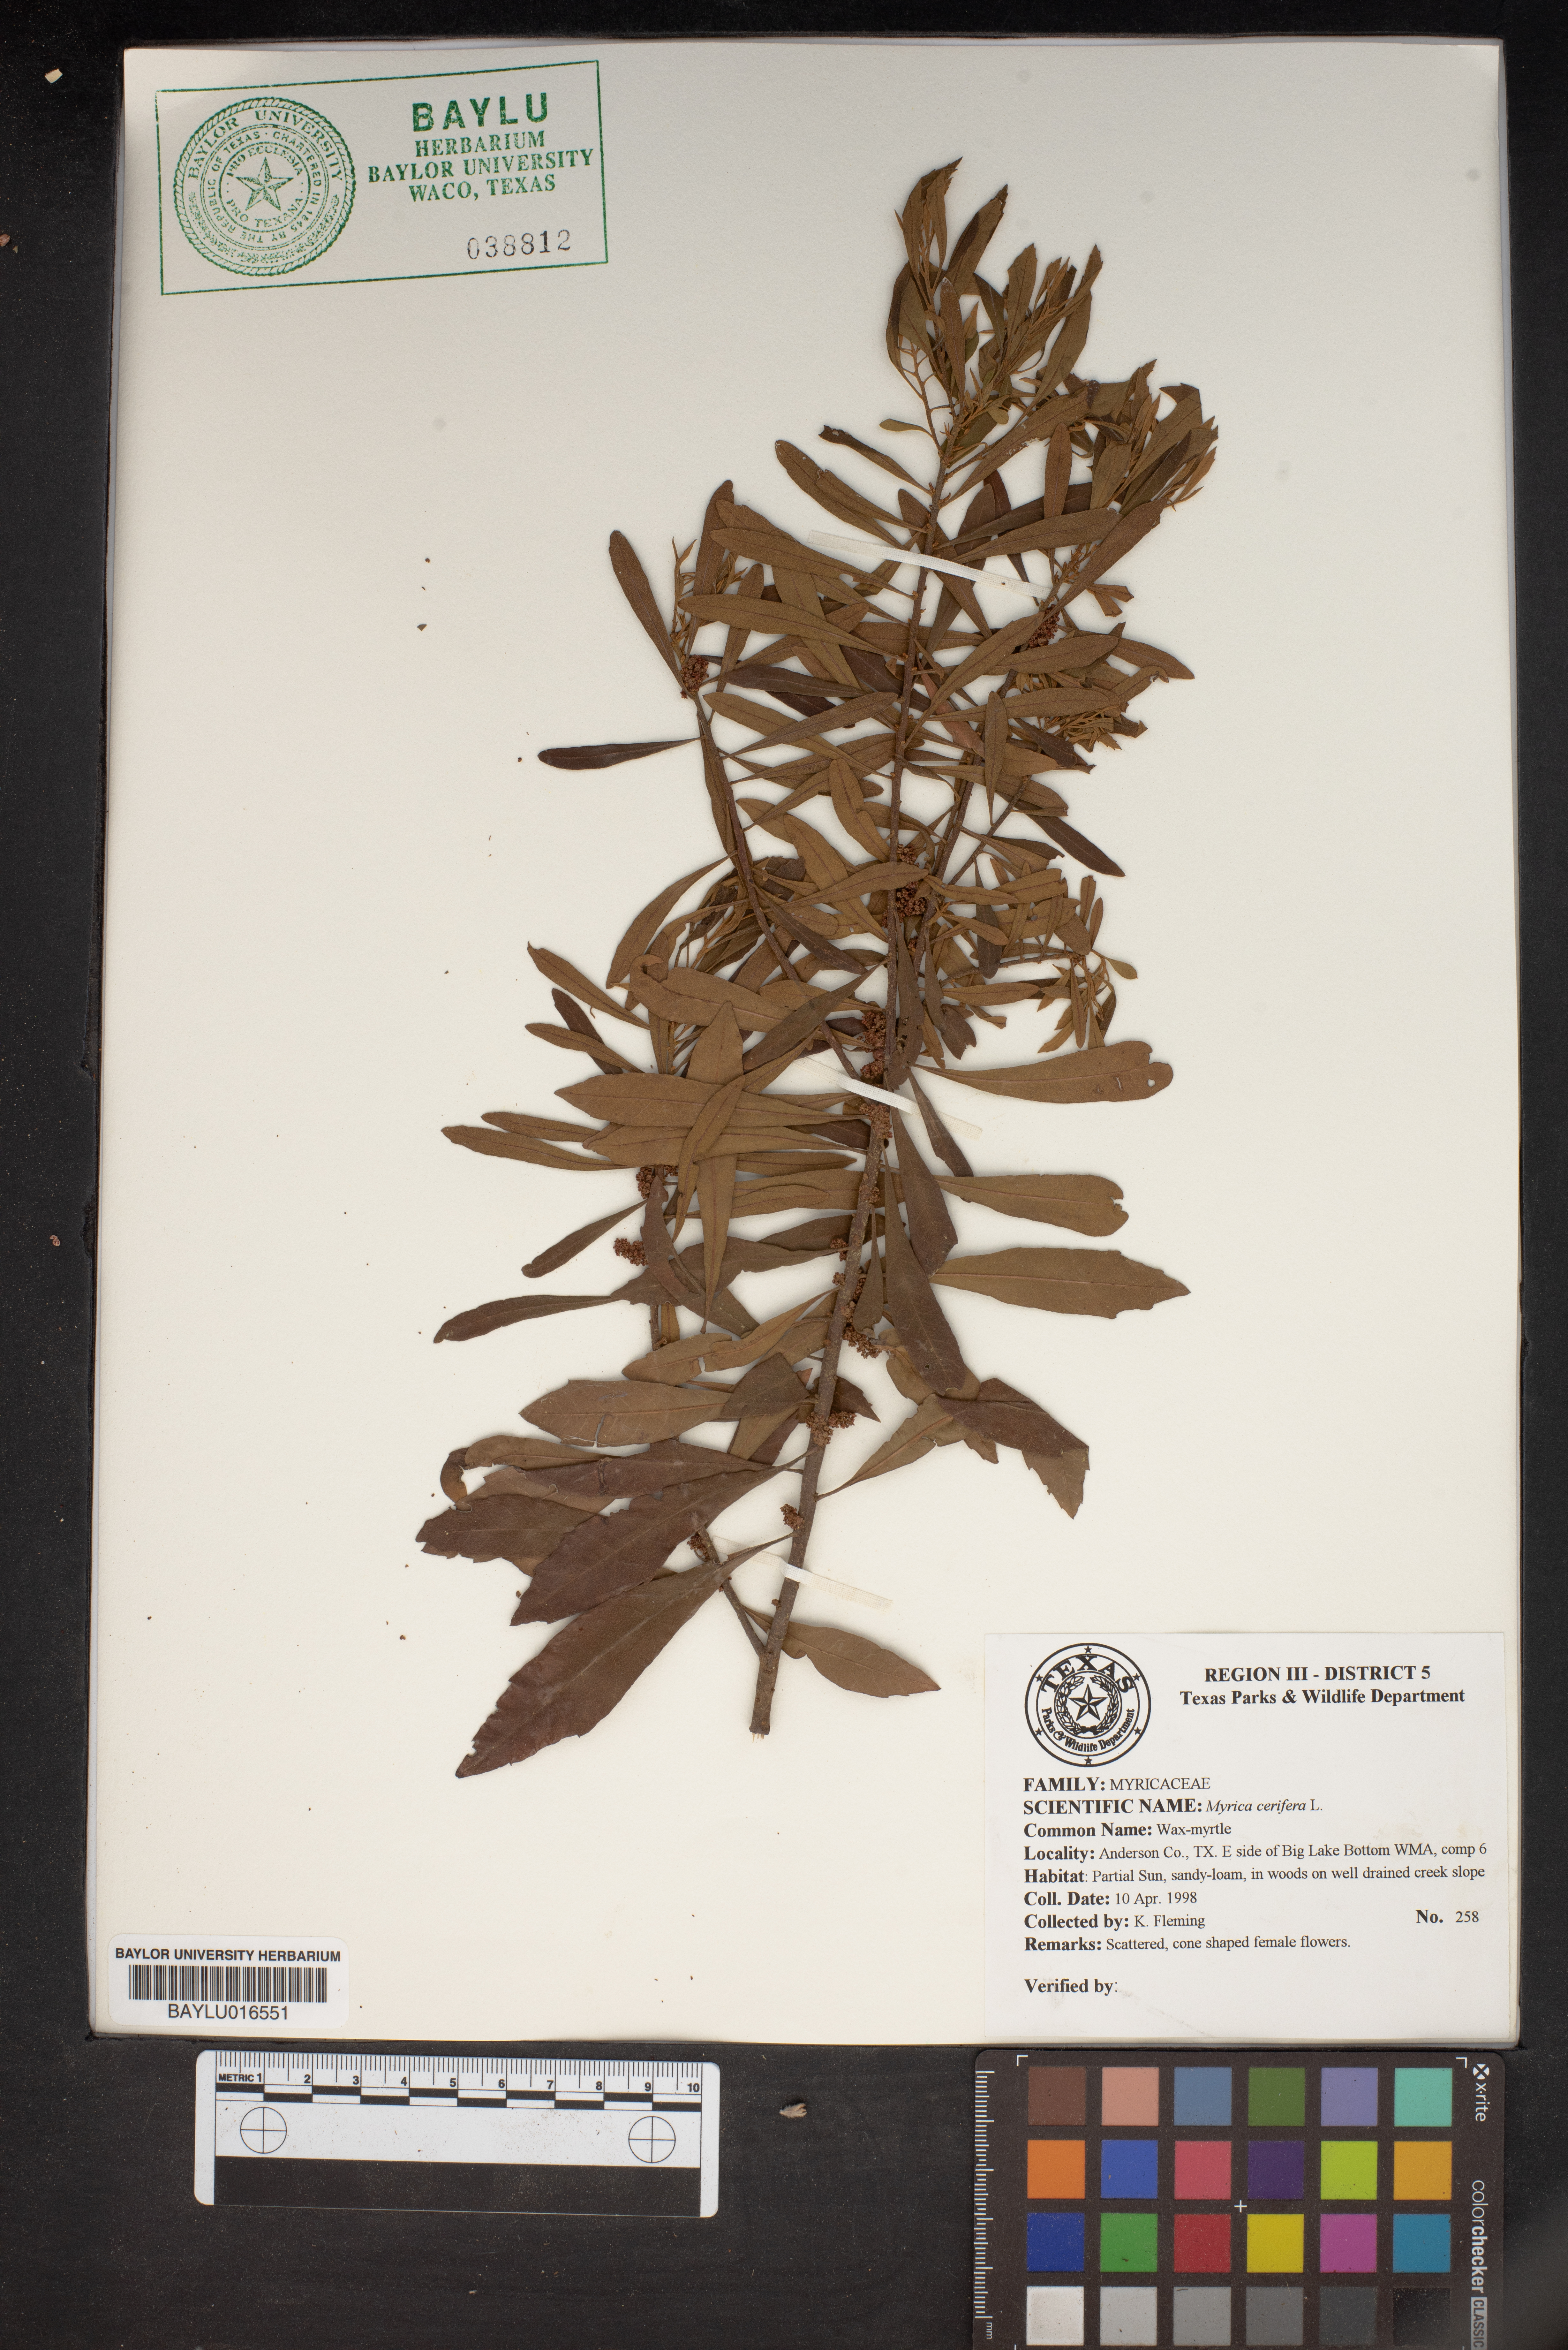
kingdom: Plantae
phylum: Tracheophyta
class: Magnoliopsida
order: Fagales
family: Myricaceae
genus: Morella
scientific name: Morella cerifera
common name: Wax myrtle
